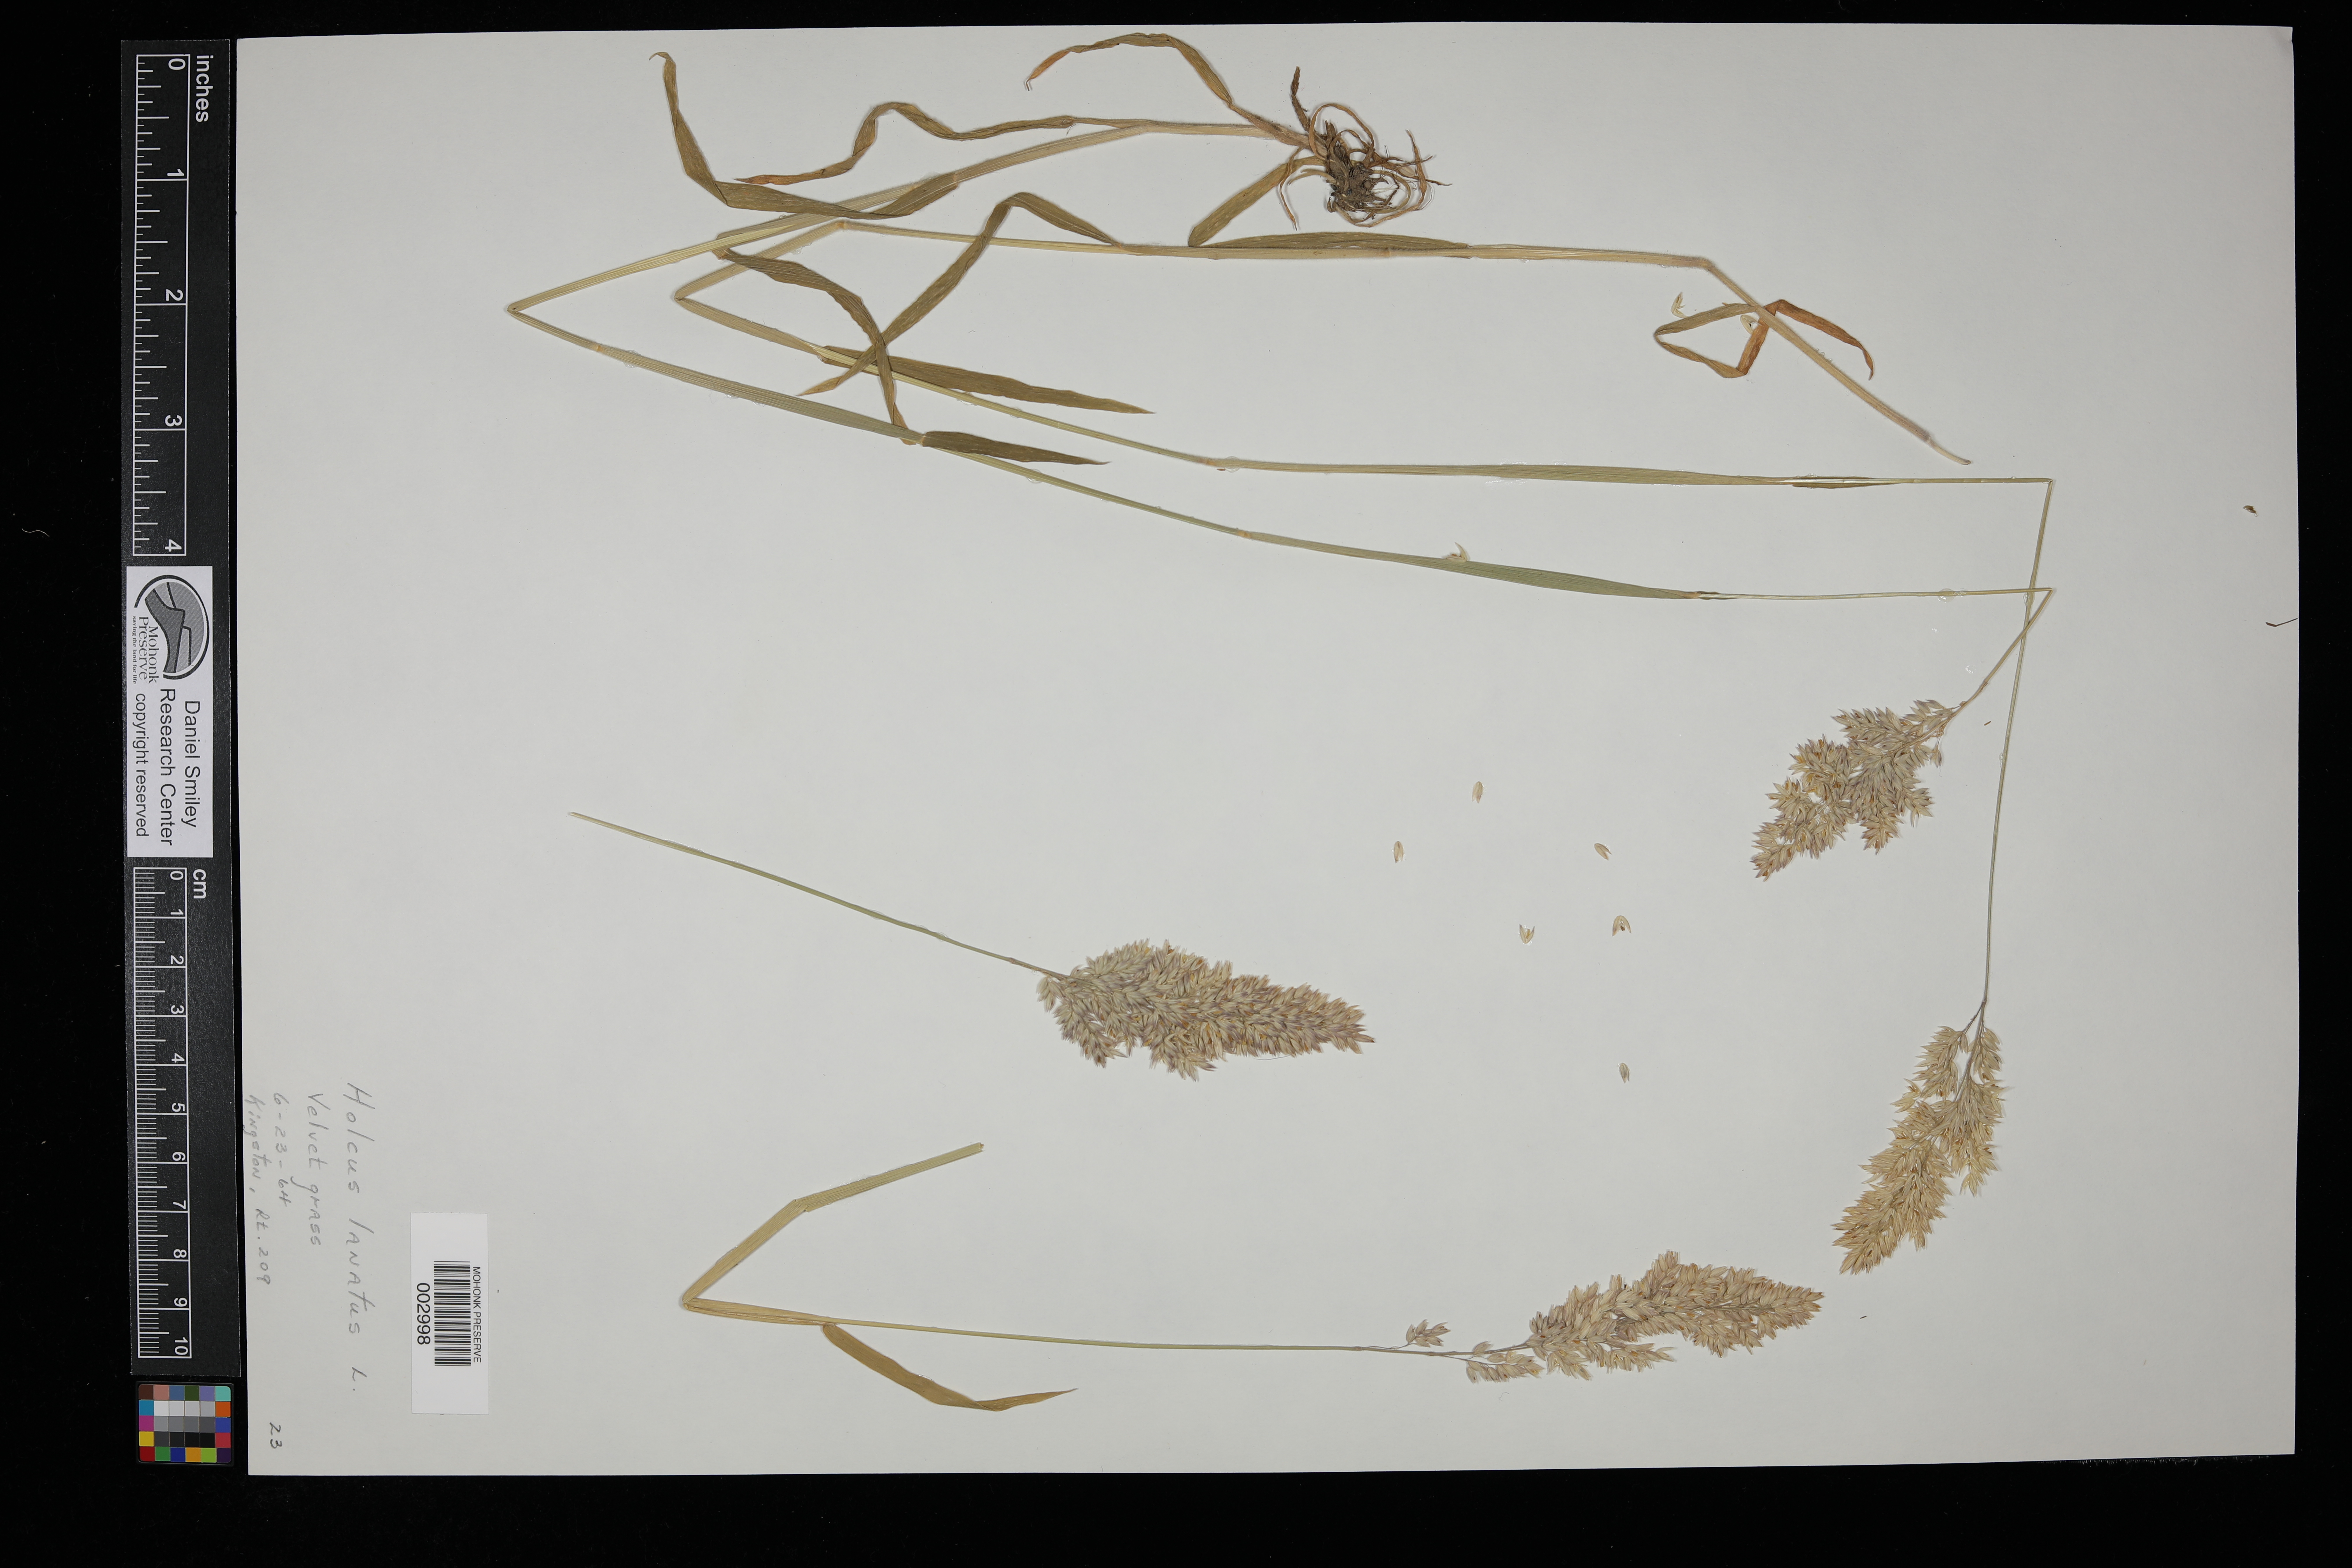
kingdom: Plantae
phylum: Tracheophyta
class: Liliopsida
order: Poales
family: Poaceae
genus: Holcus
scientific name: Holcus lanatus
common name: Yorkshire-fog
